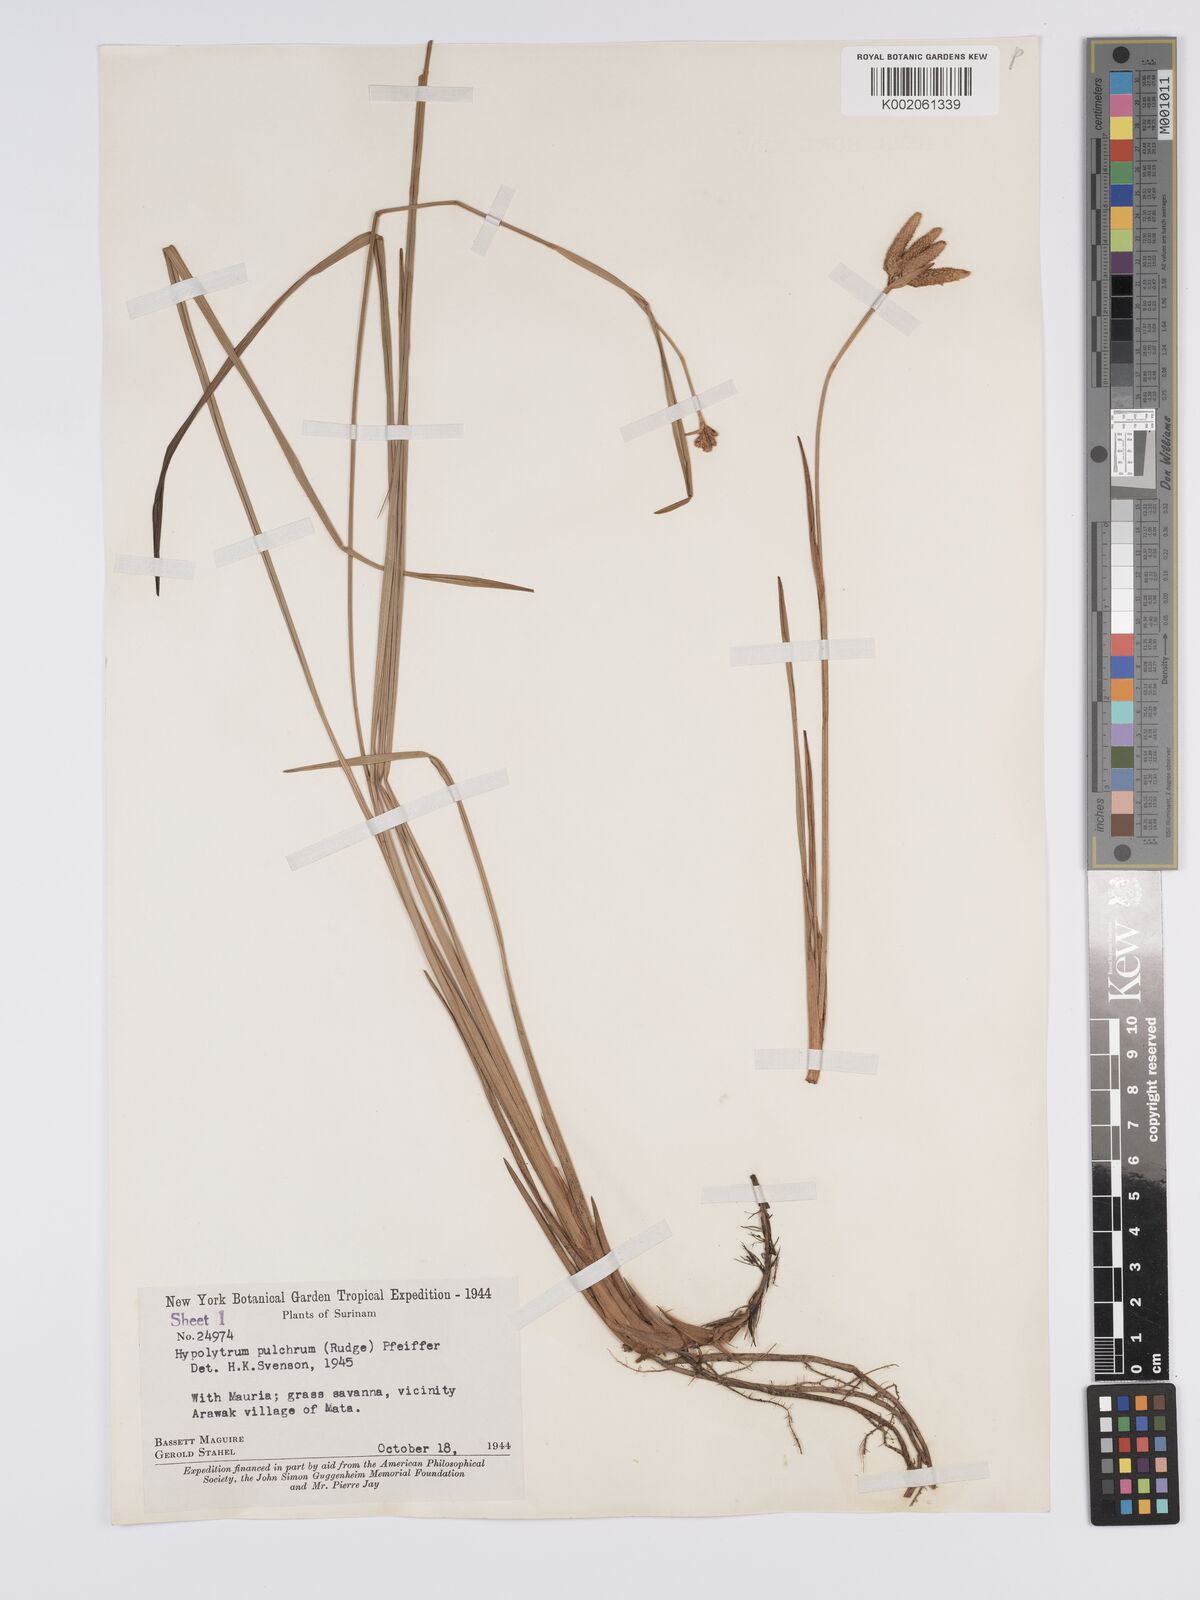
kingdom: Plantae
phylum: Tracheophyta
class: Liliopsida
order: Poales
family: Cyperaceae
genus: Hypolytrum
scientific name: Hypolytrum pulchrum
